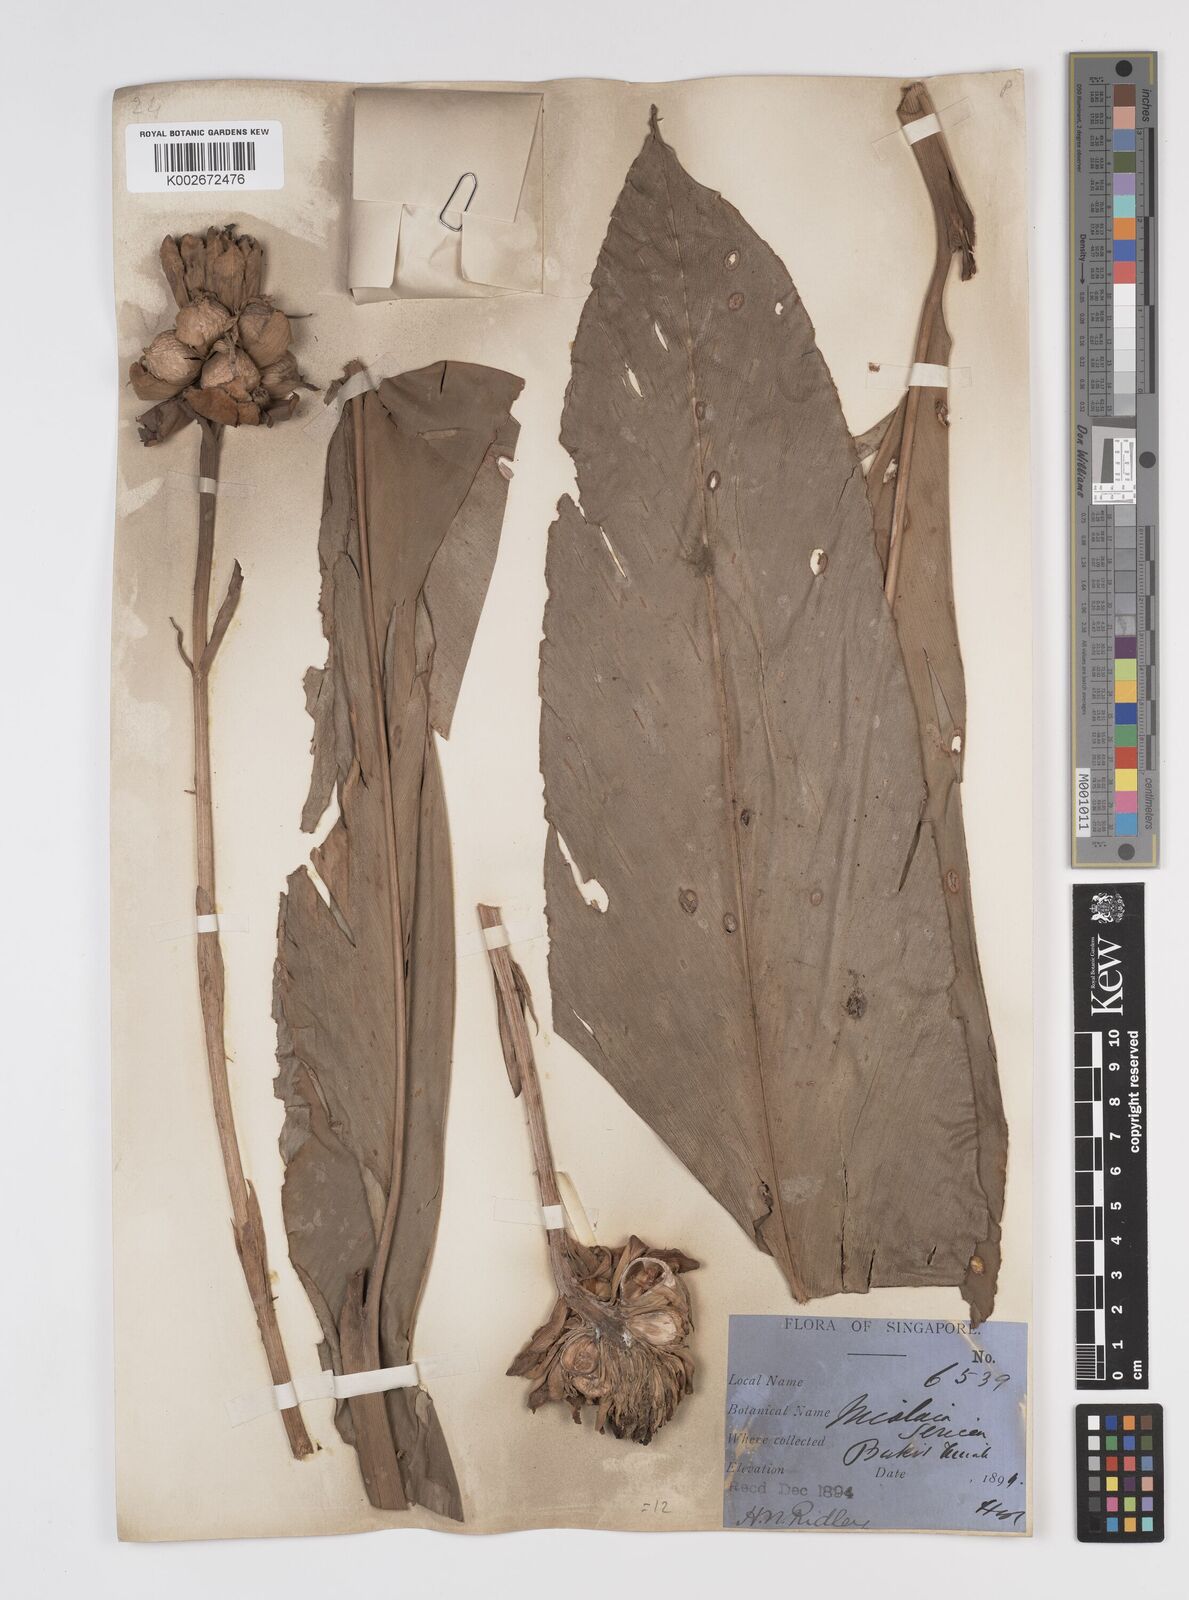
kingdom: Plantae
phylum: Tracheophyta
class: Liliopsida
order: Zingiberales
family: Zingiberaceae
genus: Etlingera
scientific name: Etlingera maingayi
